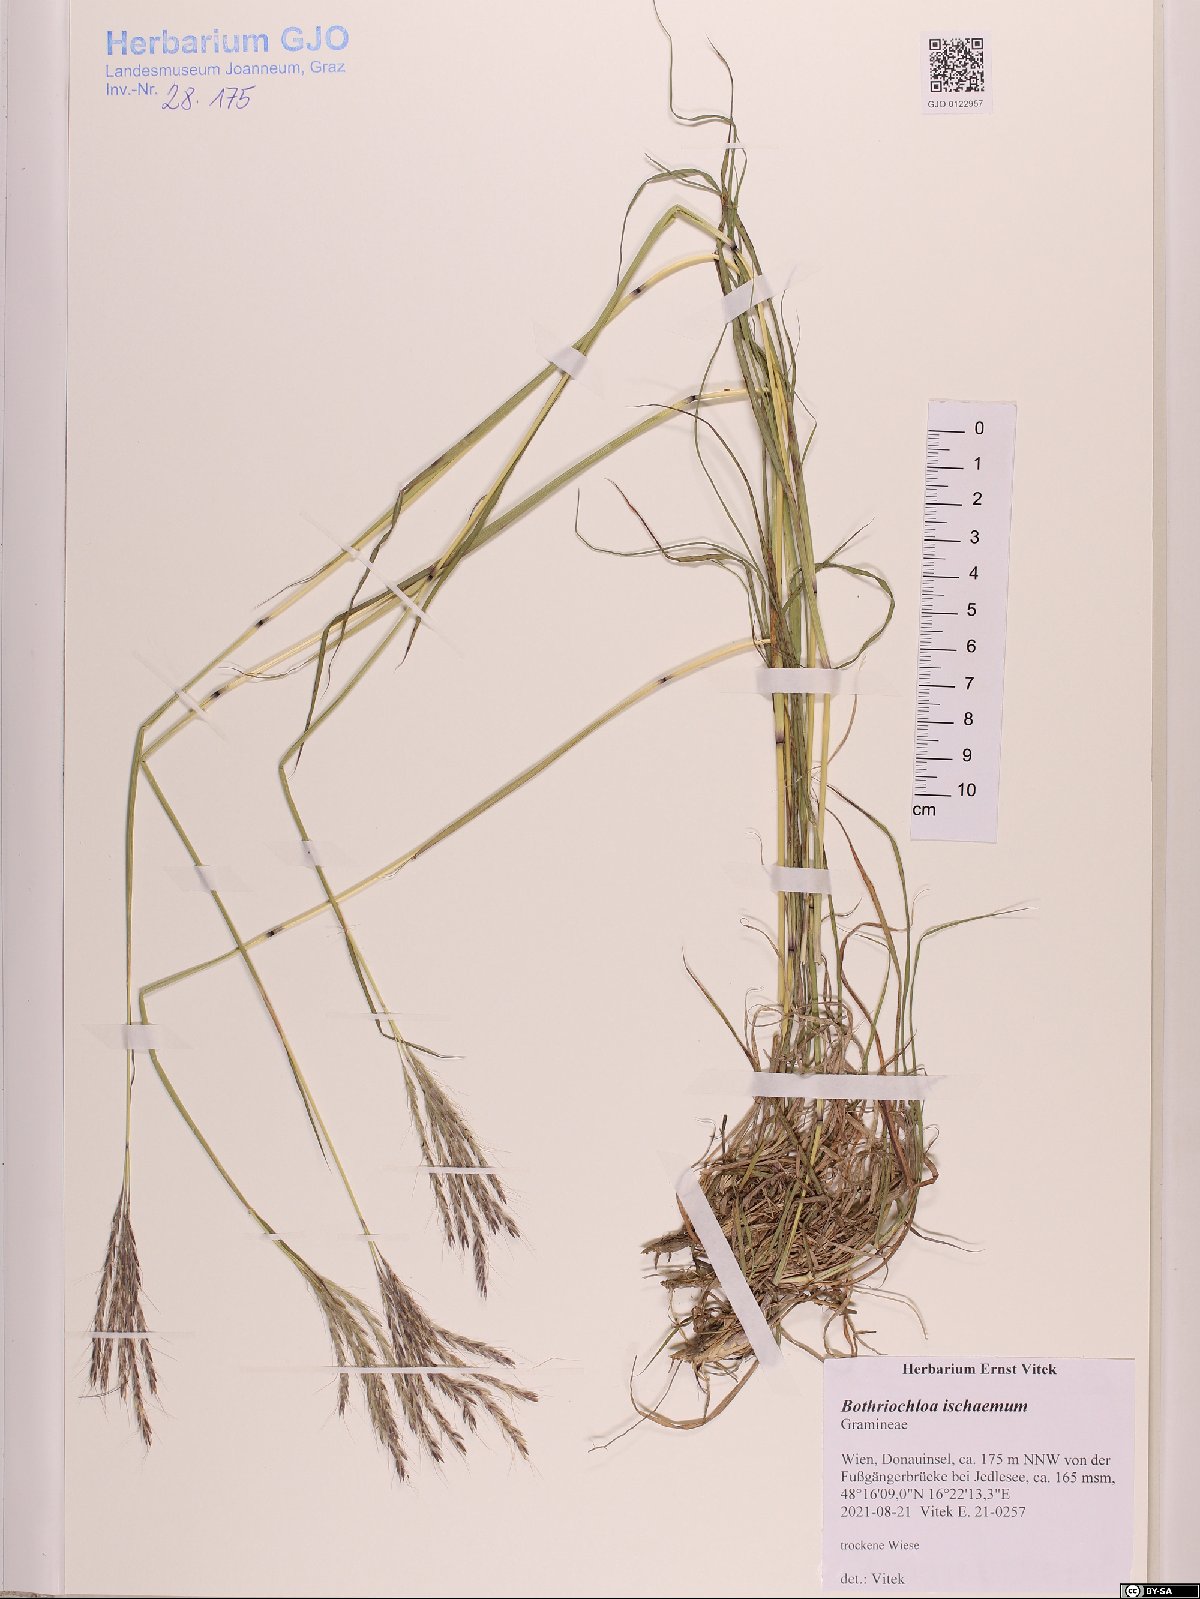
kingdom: Plantae
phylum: Tracheophyta
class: Liliopsida
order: Poales
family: Poaceae
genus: Bothriochloa
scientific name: Bothriochloa ischaemum
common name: Yellow bluestem
